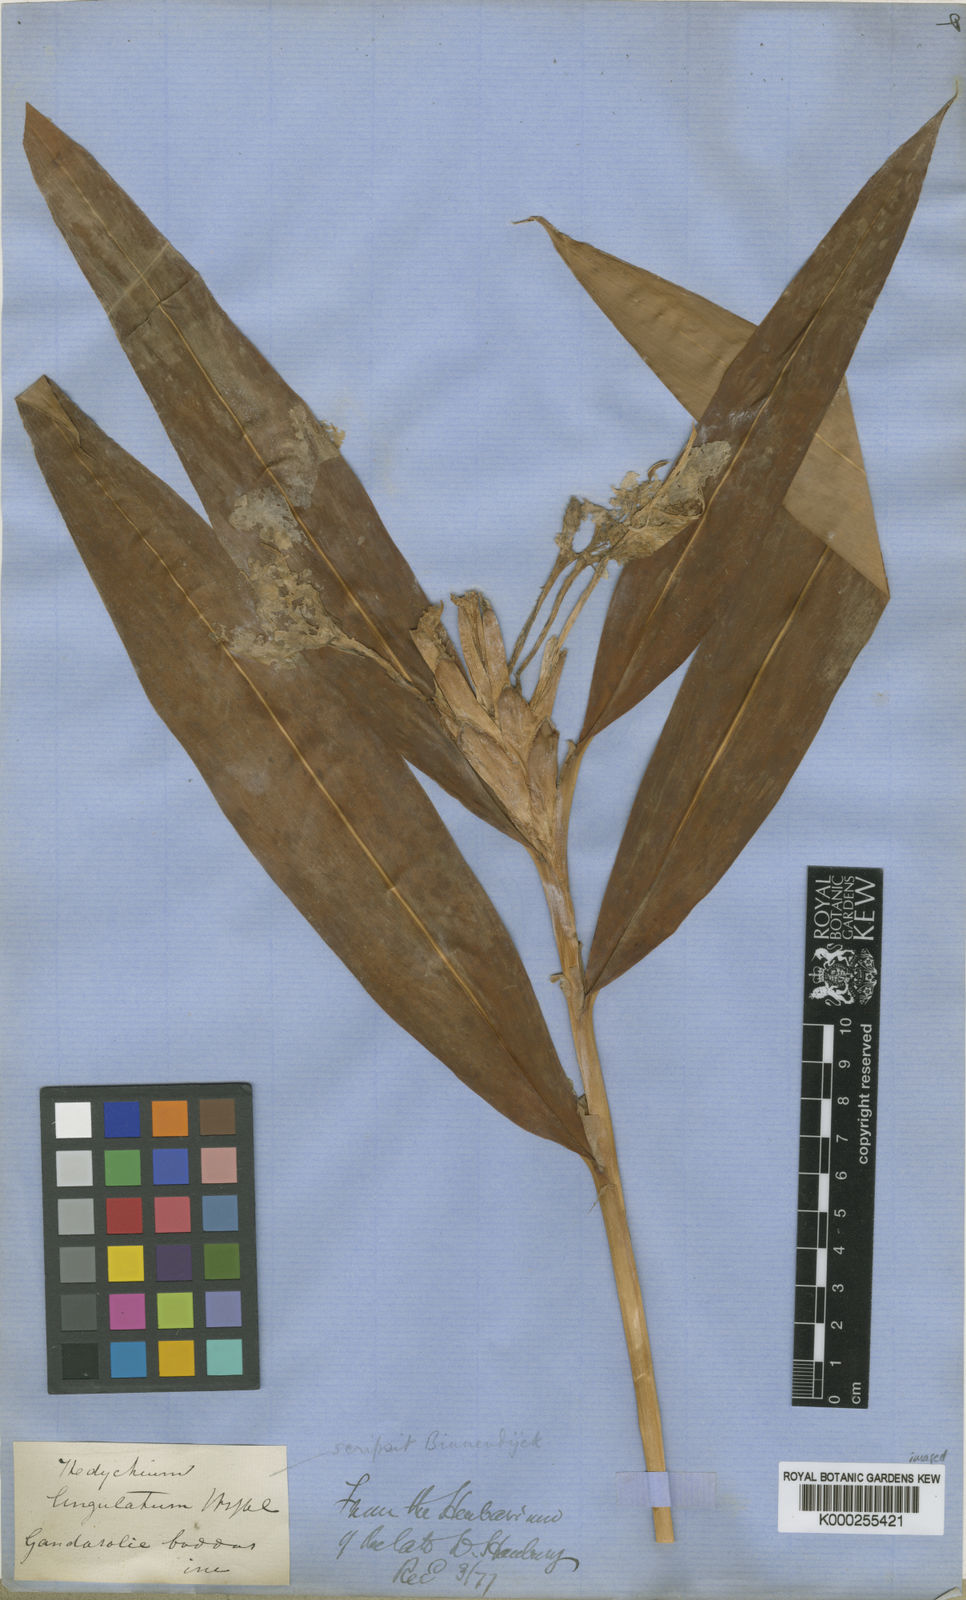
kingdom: Plantae
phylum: Tracheophyta
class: Liliopsida
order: Zingiberales
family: Zingiberaceae
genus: Hedychium
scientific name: Hedychium coronarium
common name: White garland-lily
